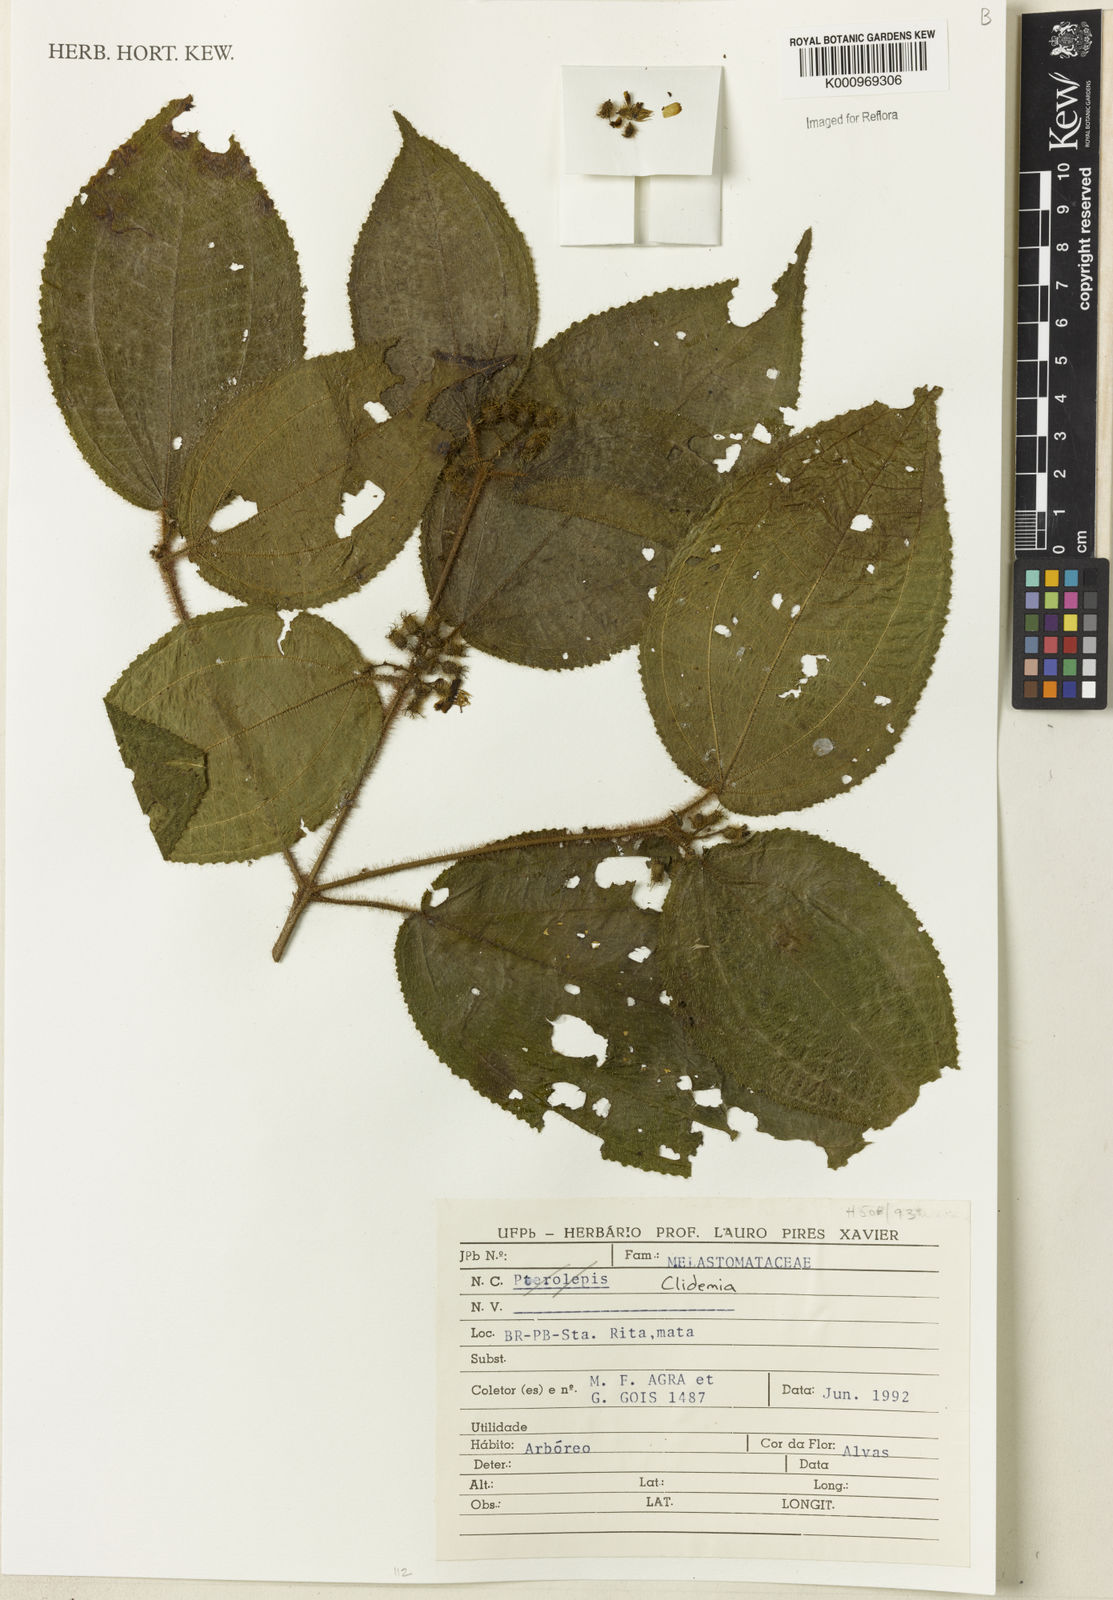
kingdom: Plantae
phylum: Tracheophyta
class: Magnoliopsida
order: Myrtales
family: Melastomataceae
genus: Miconia
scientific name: Miconia
